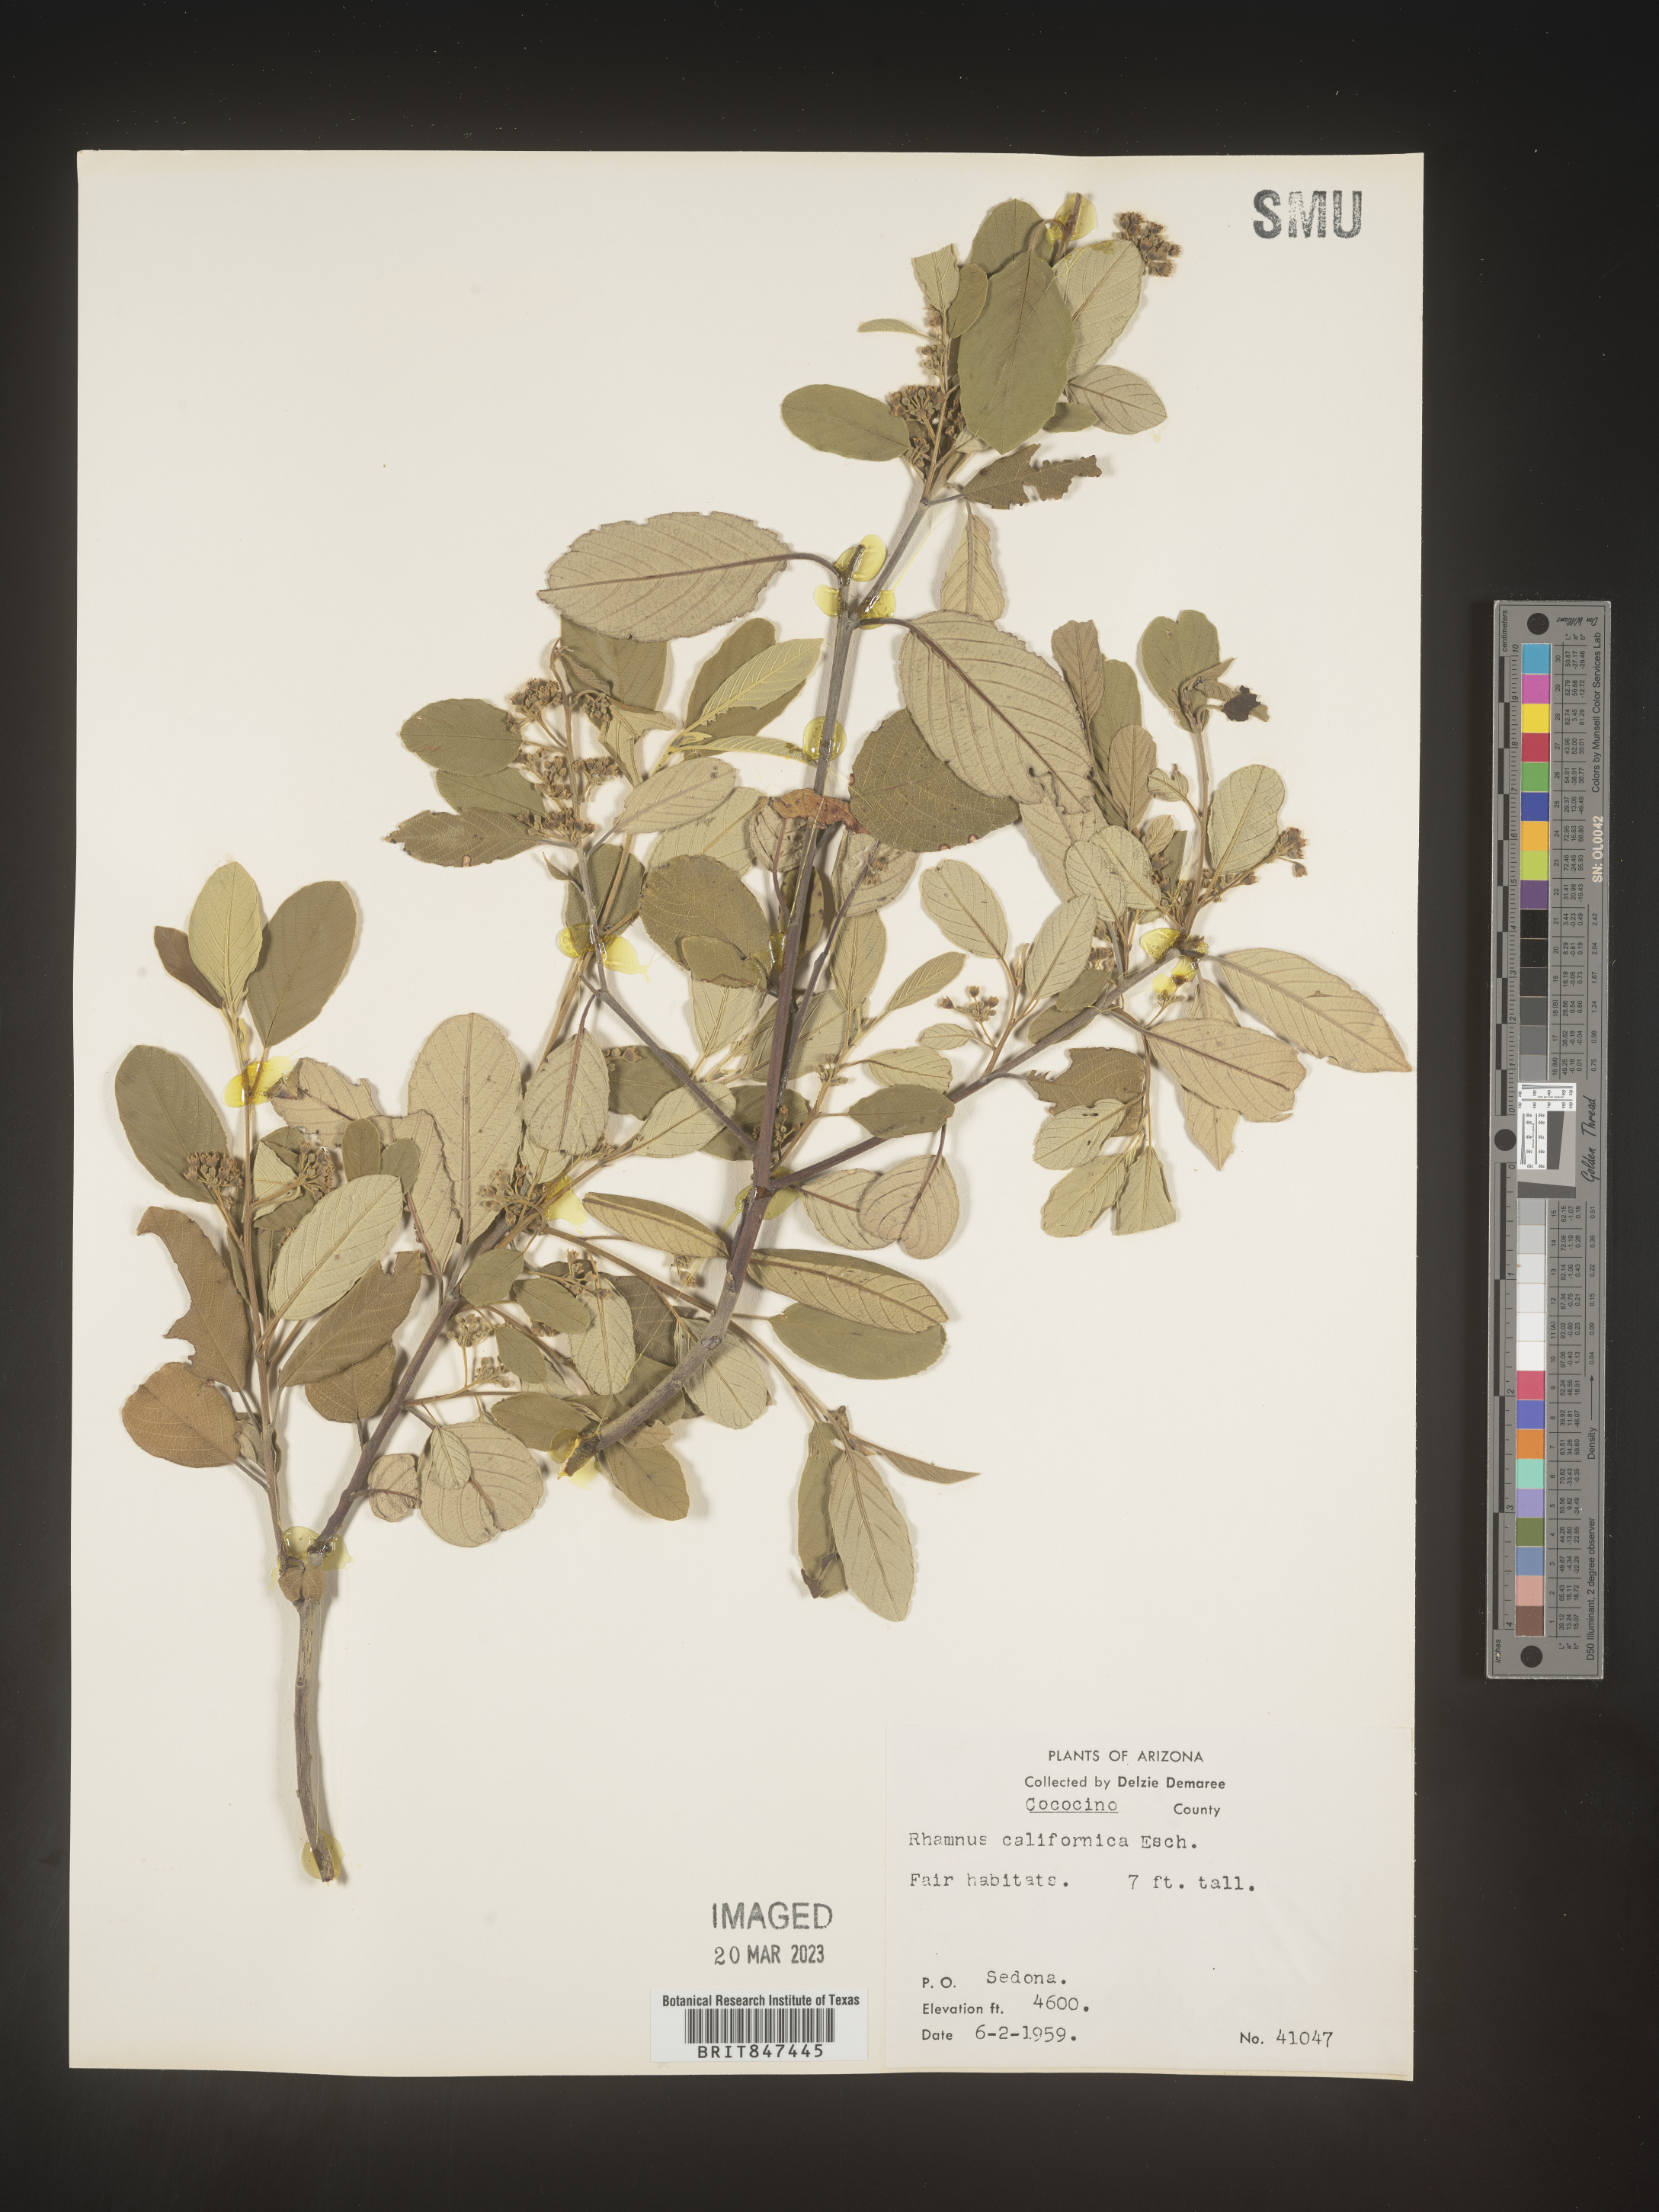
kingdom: Plantae
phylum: Tracheophyta
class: Magnoliopsida
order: Rosales
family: Rhamnaceae
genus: Frangula
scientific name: Frangula californica
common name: California buckthorn
